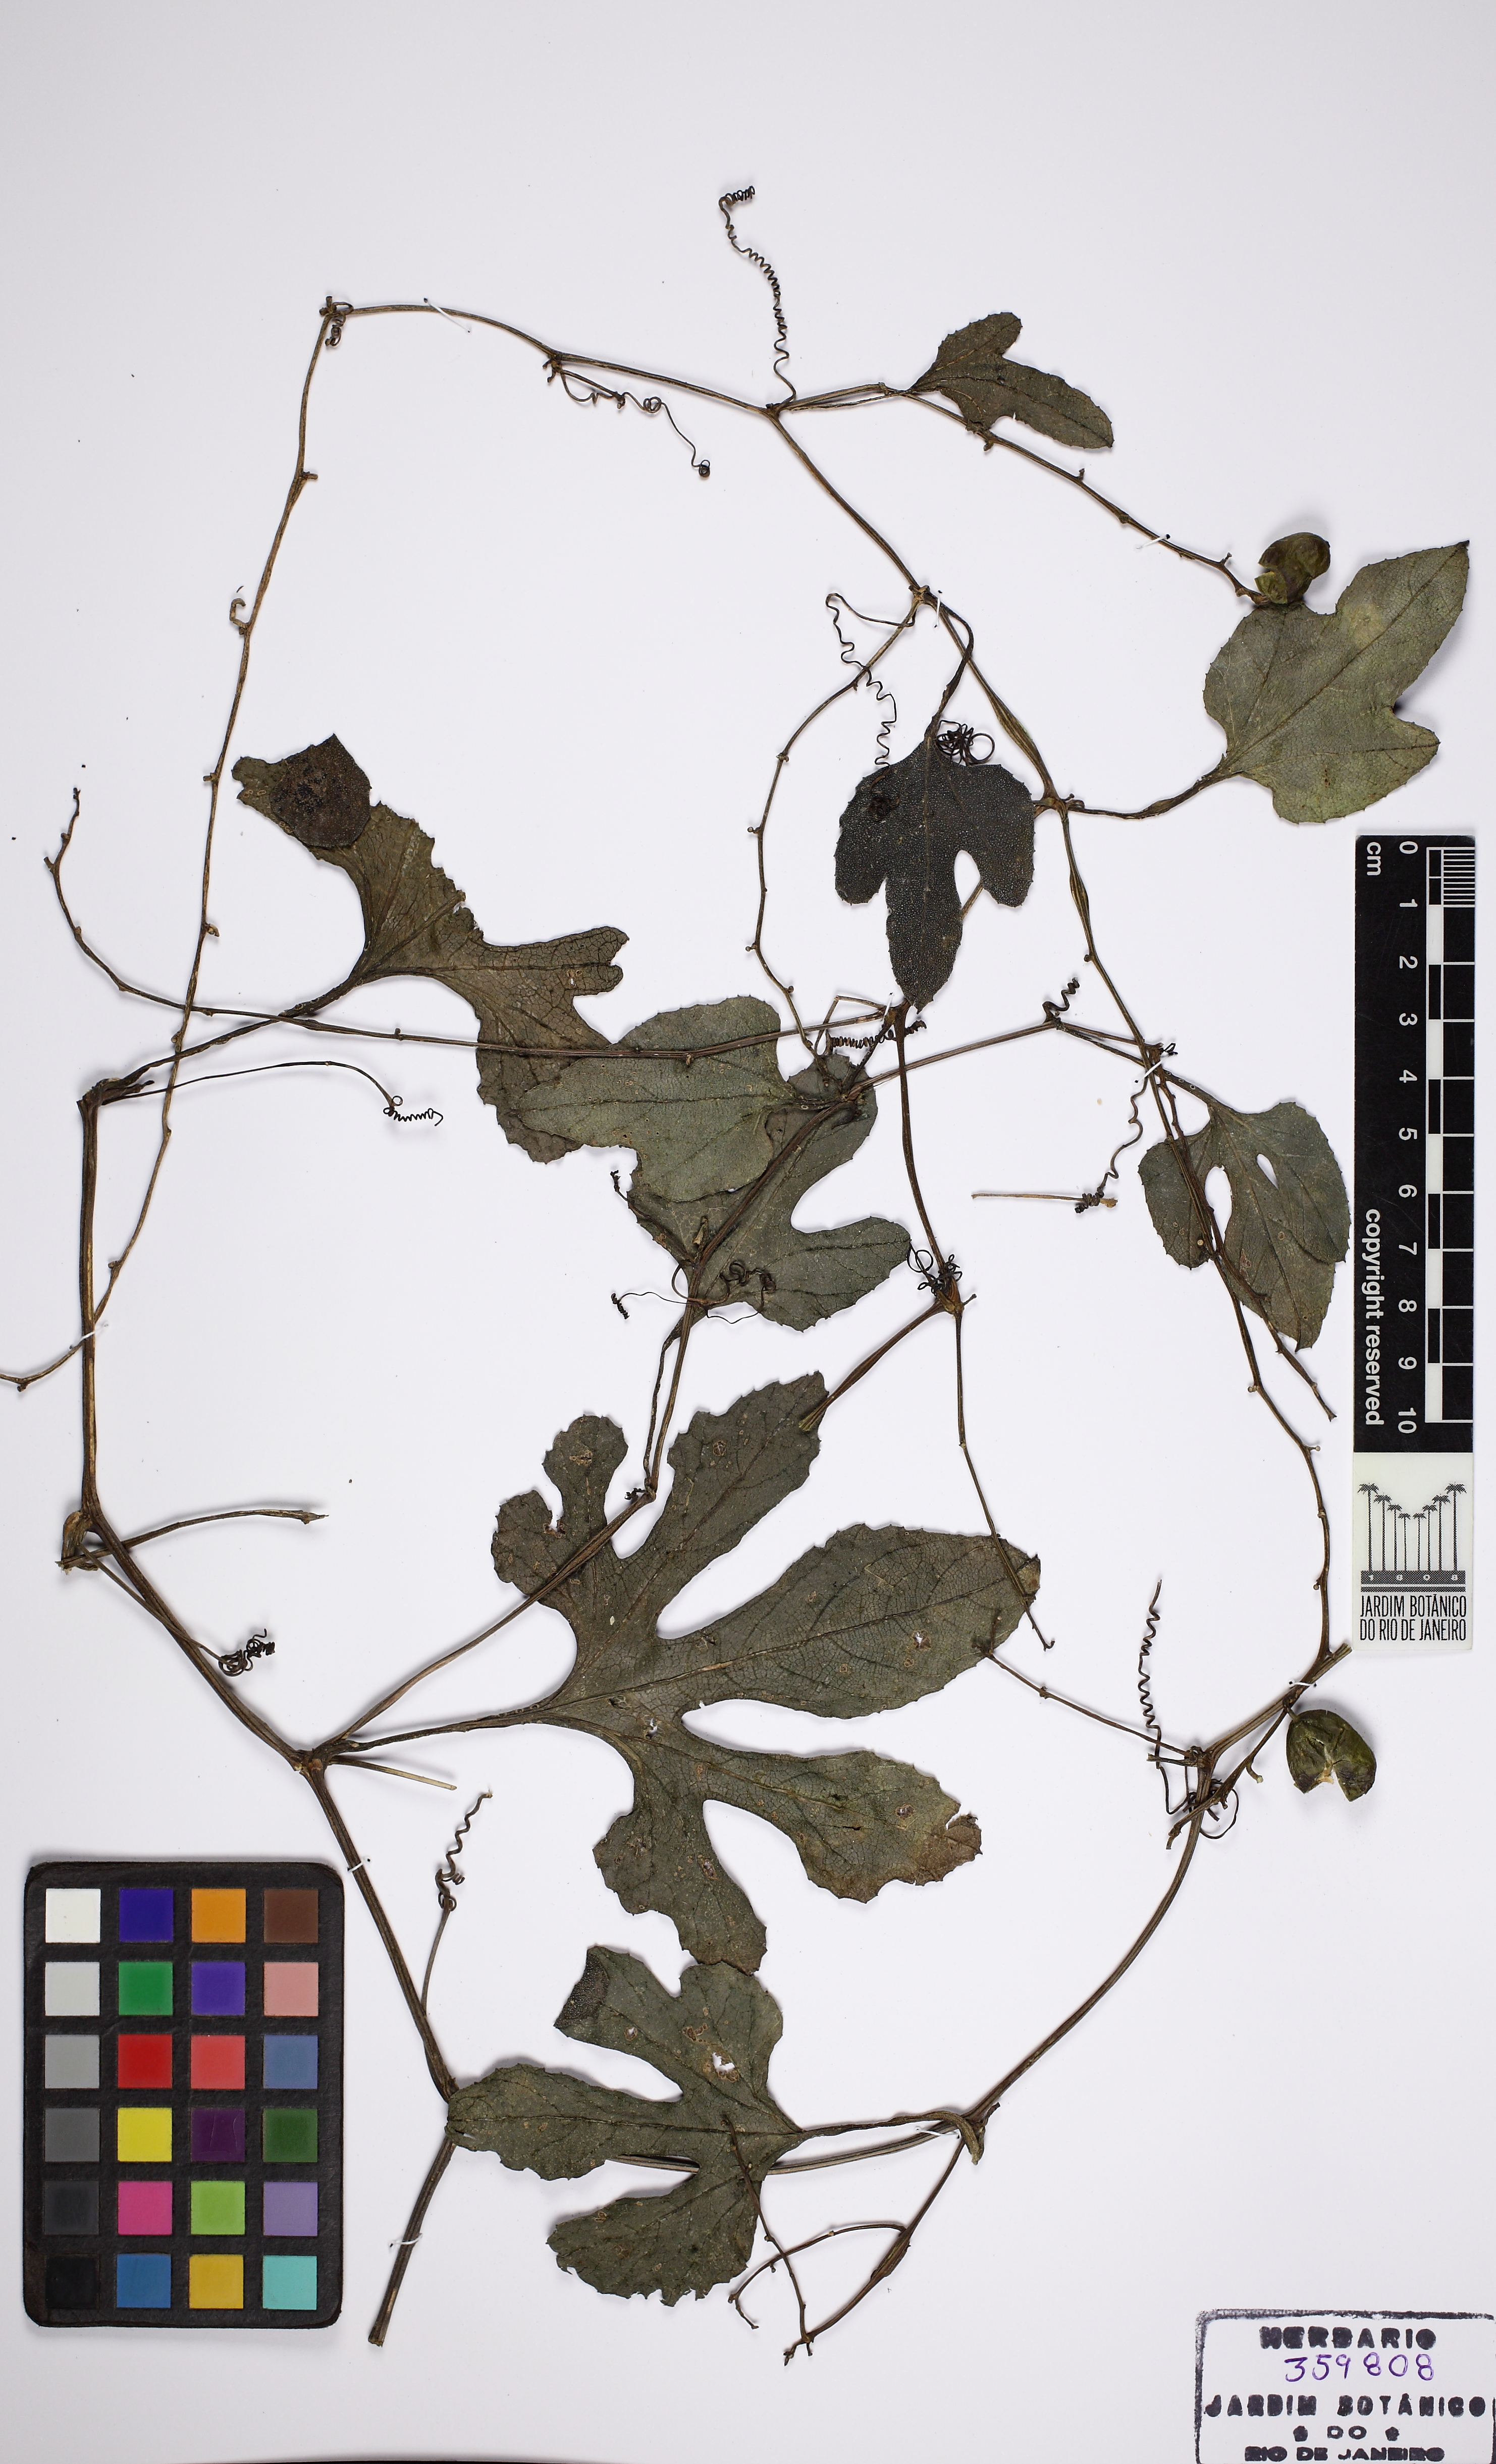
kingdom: Plantae
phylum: Tracheophyta
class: Magnoliopsida
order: Cucurbitales
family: Cucurbitaceae
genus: Cayaponia
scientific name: Cayaponia tayuya
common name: Tayuya
